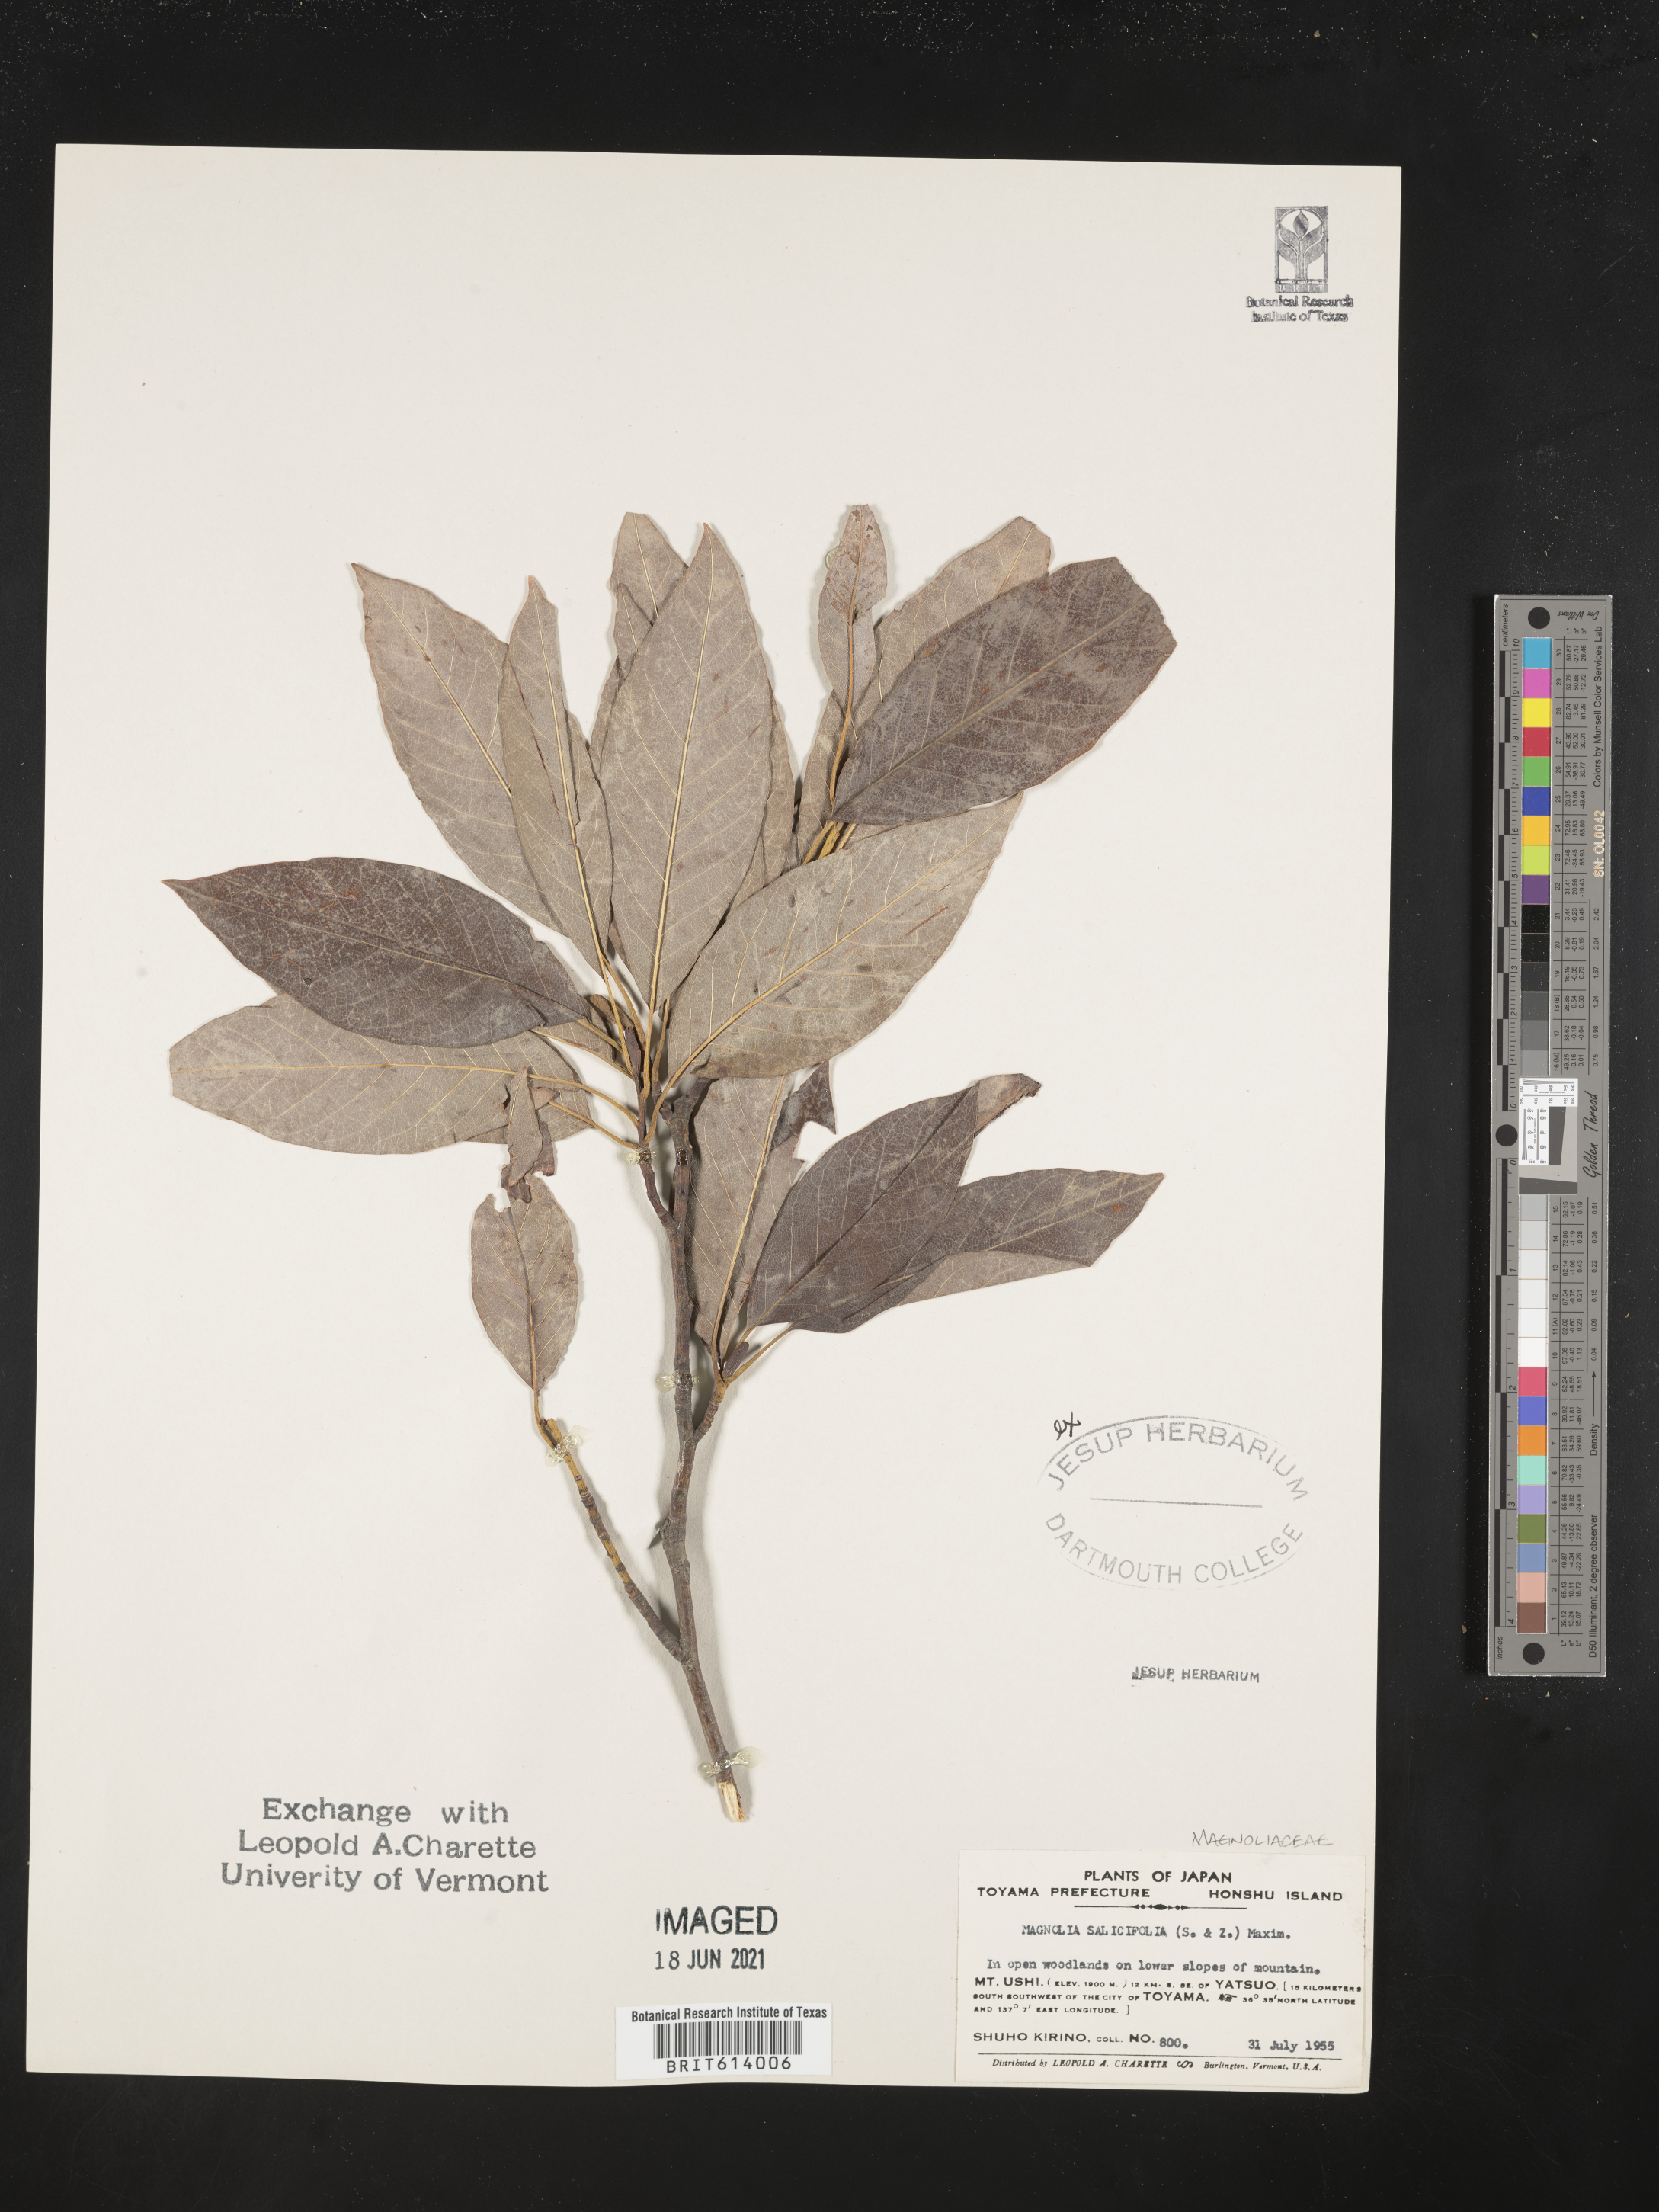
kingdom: Plantae
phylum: Tracheophyta
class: Magnoliopsida
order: Magnoliales
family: Magnoliaceae
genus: Magnolia
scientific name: Magnolia salicifolia
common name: Anise magnolia
